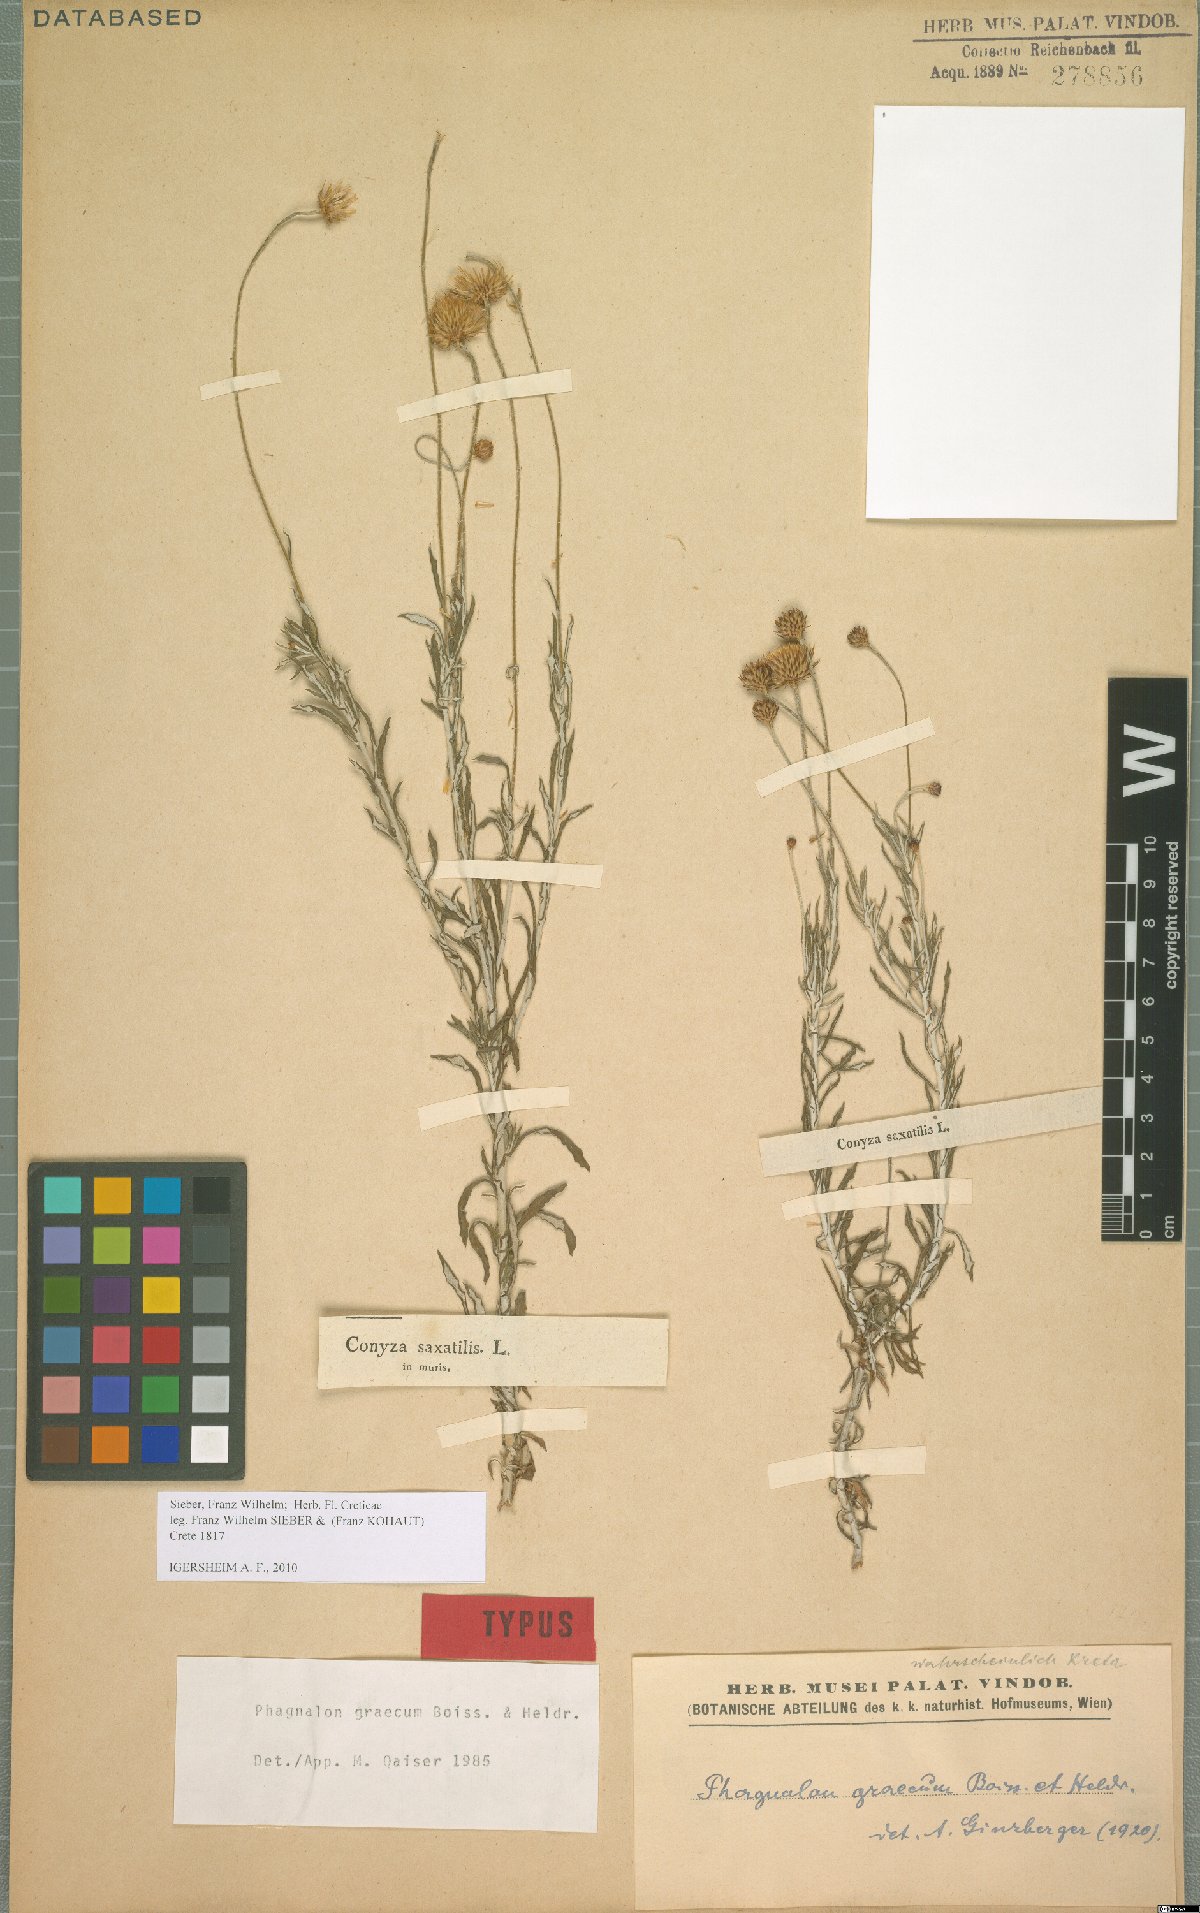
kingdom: Plantae
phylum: Tracheophyta
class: Magnoliopsida
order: Asterales
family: Asteraceae
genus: Phagnalon
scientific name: Phagnalon graecum
